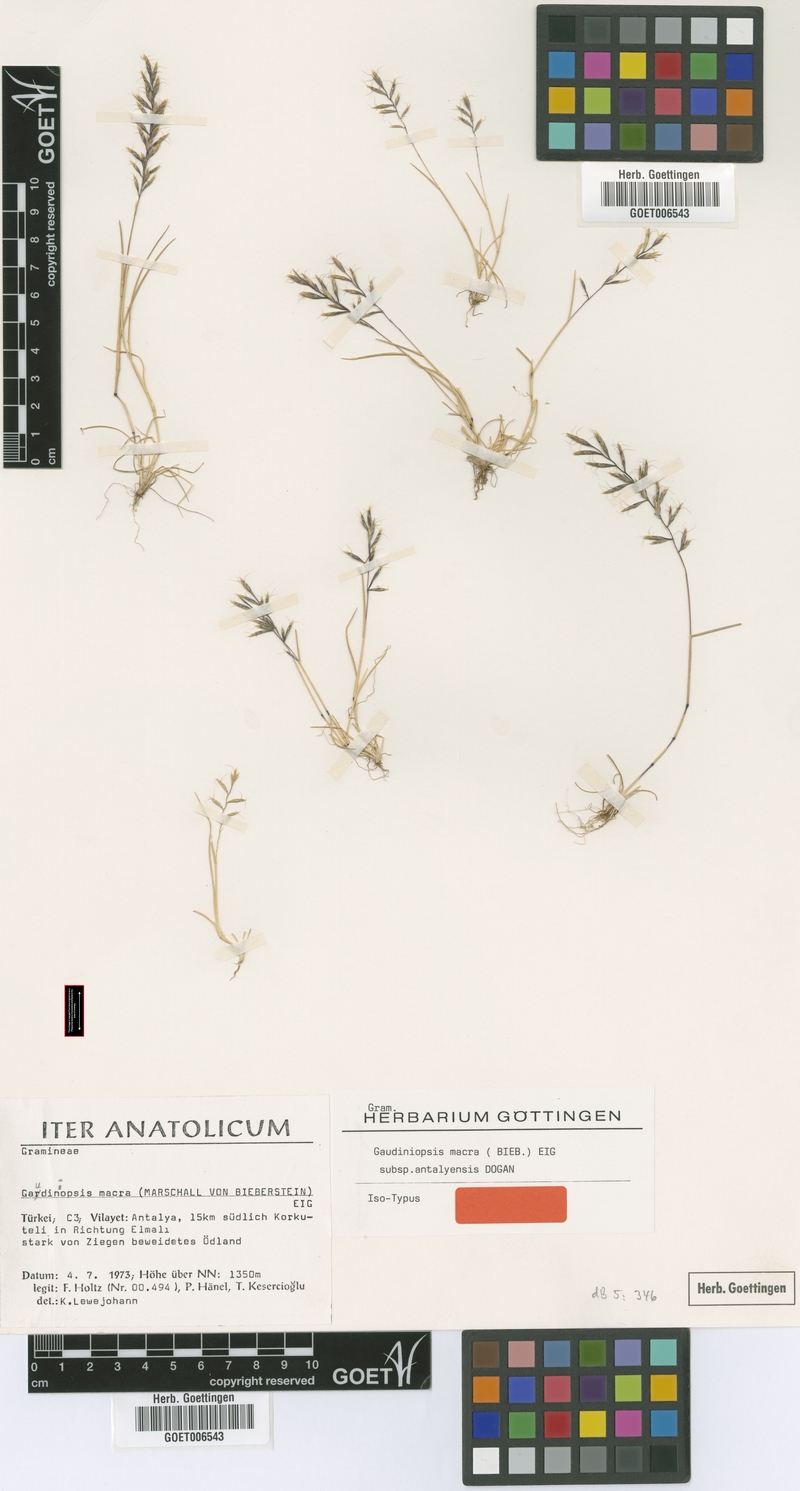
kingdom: Plantae
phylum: Tracheophyta
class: Liliopsida
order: Poales
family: Poaceae
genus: Ventenata
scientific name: Ventenata macra
